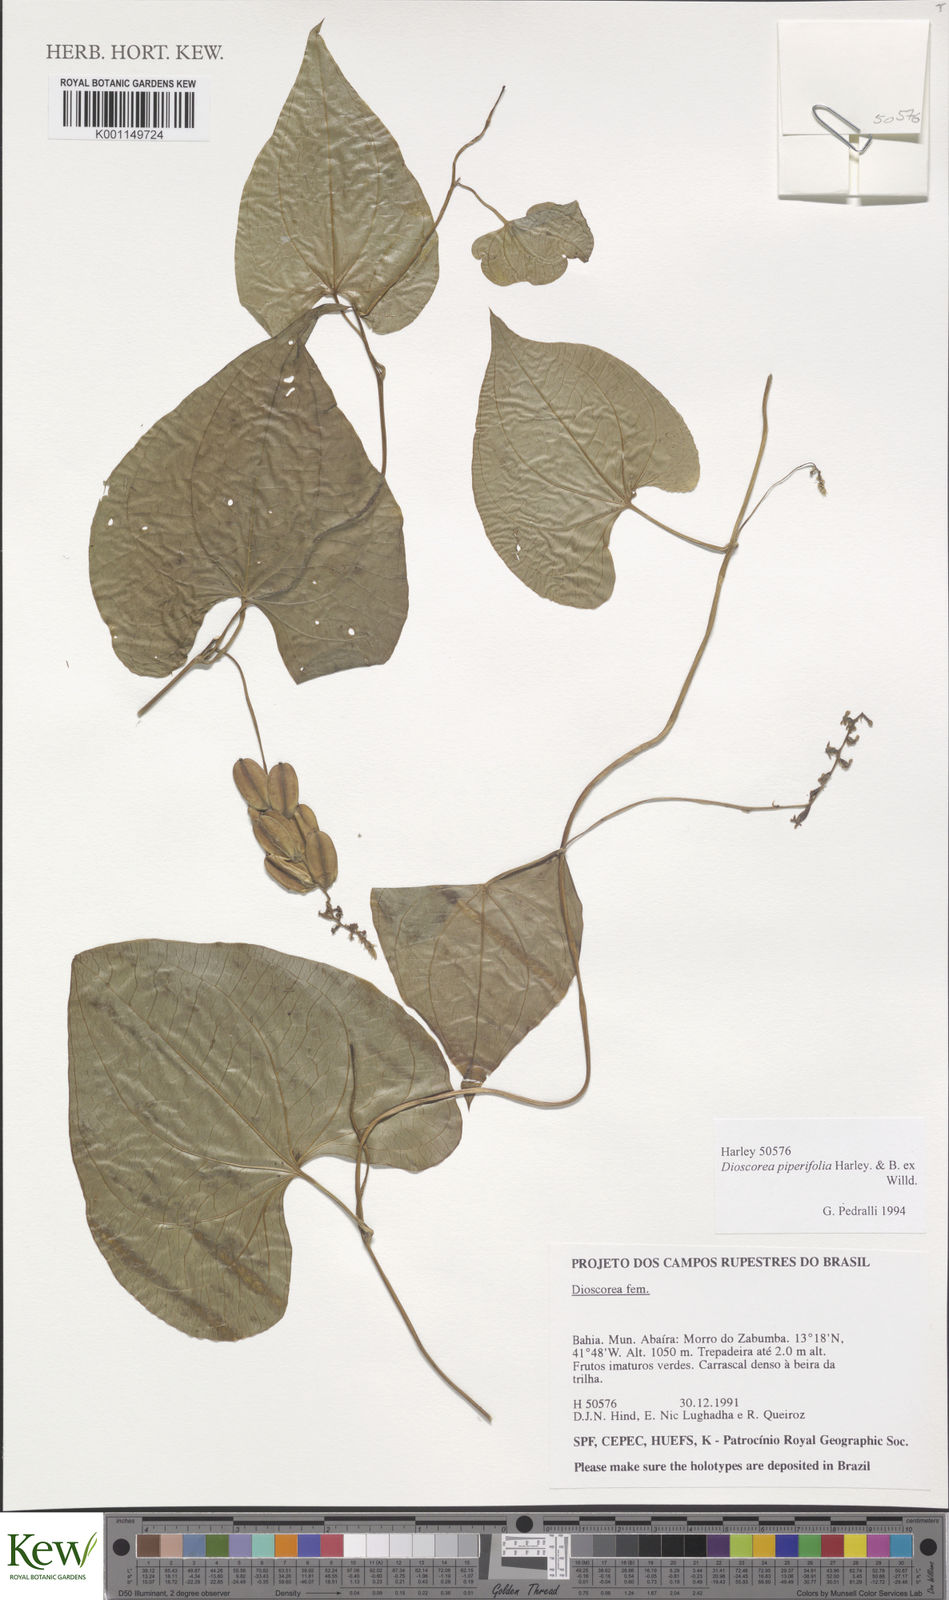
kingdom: Plantae
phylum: Tracheophyta
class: Liliopsida
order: Dioscoreales
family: Dioscoreaceae
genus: Dioscorea
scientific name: Dioscorea piperifolia
